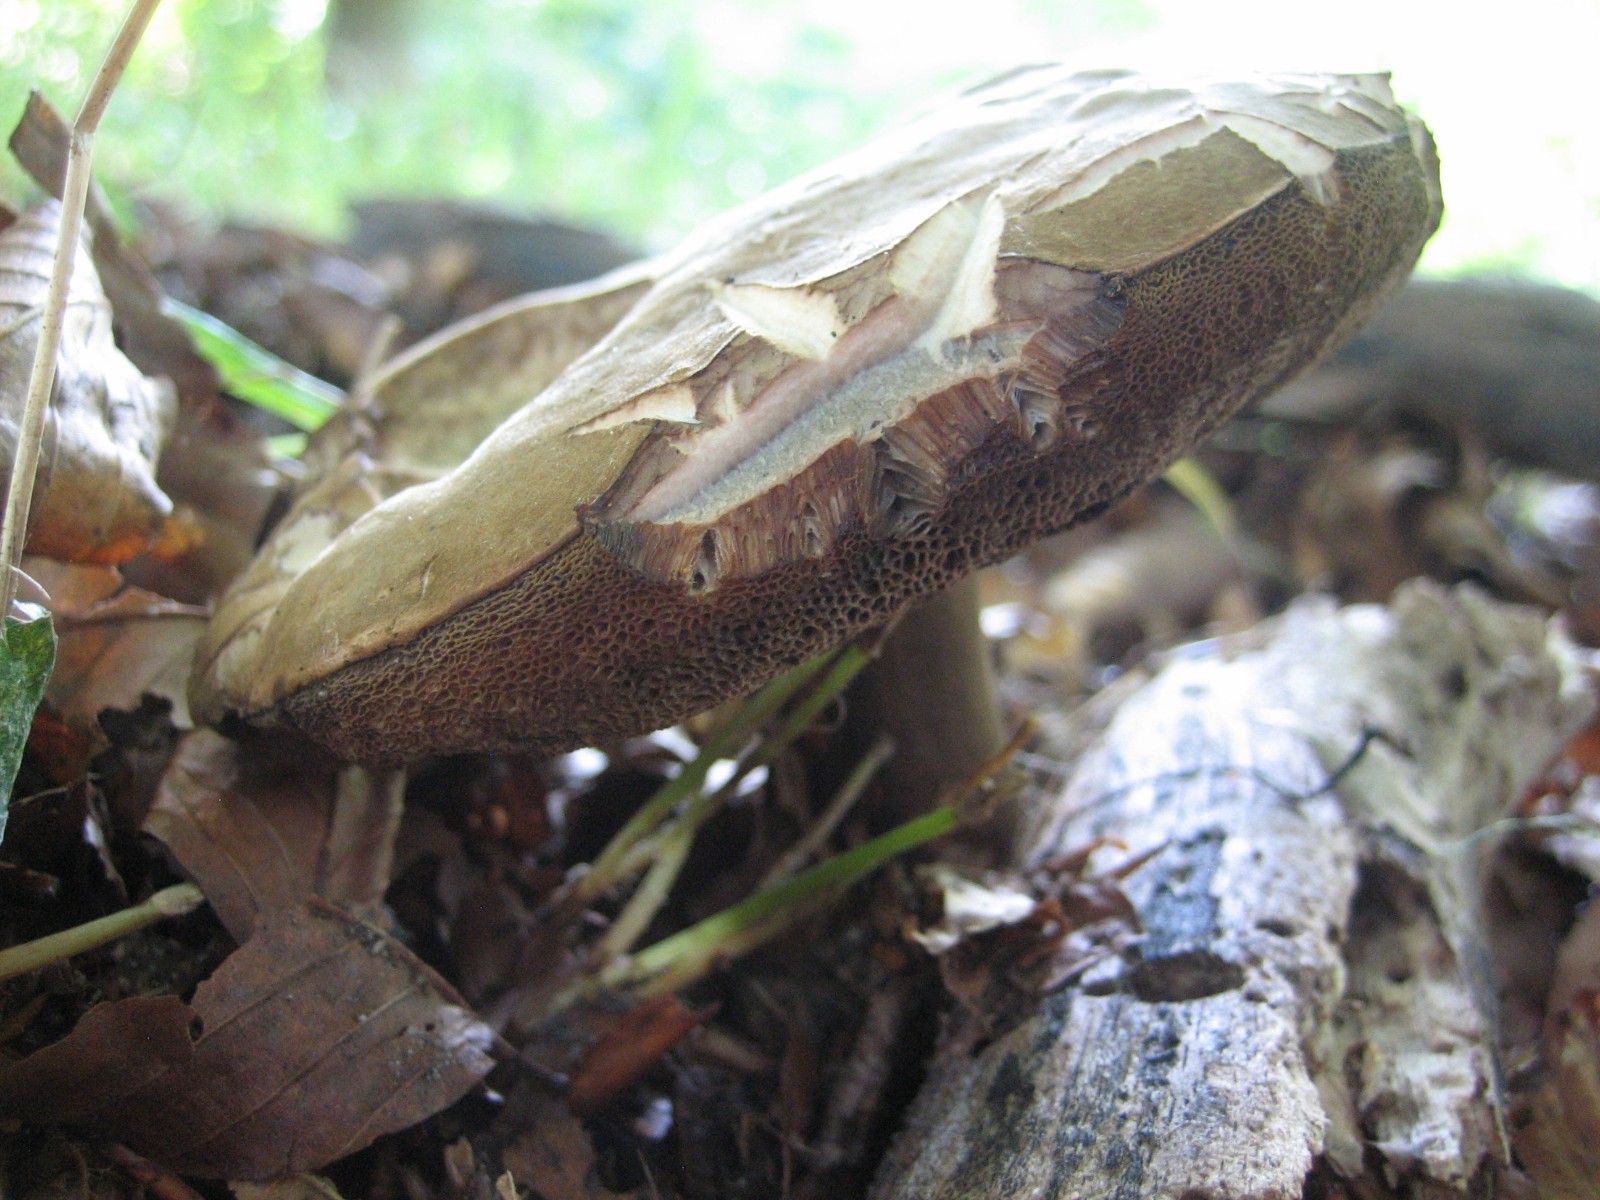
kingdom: Fungi
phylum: Basidiomycota
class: Agaricomycetes
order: Boletales
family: Boletaceae
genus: Porphyrellus
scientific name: Porphyrellus porphyrosporus
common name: sodrørhat
